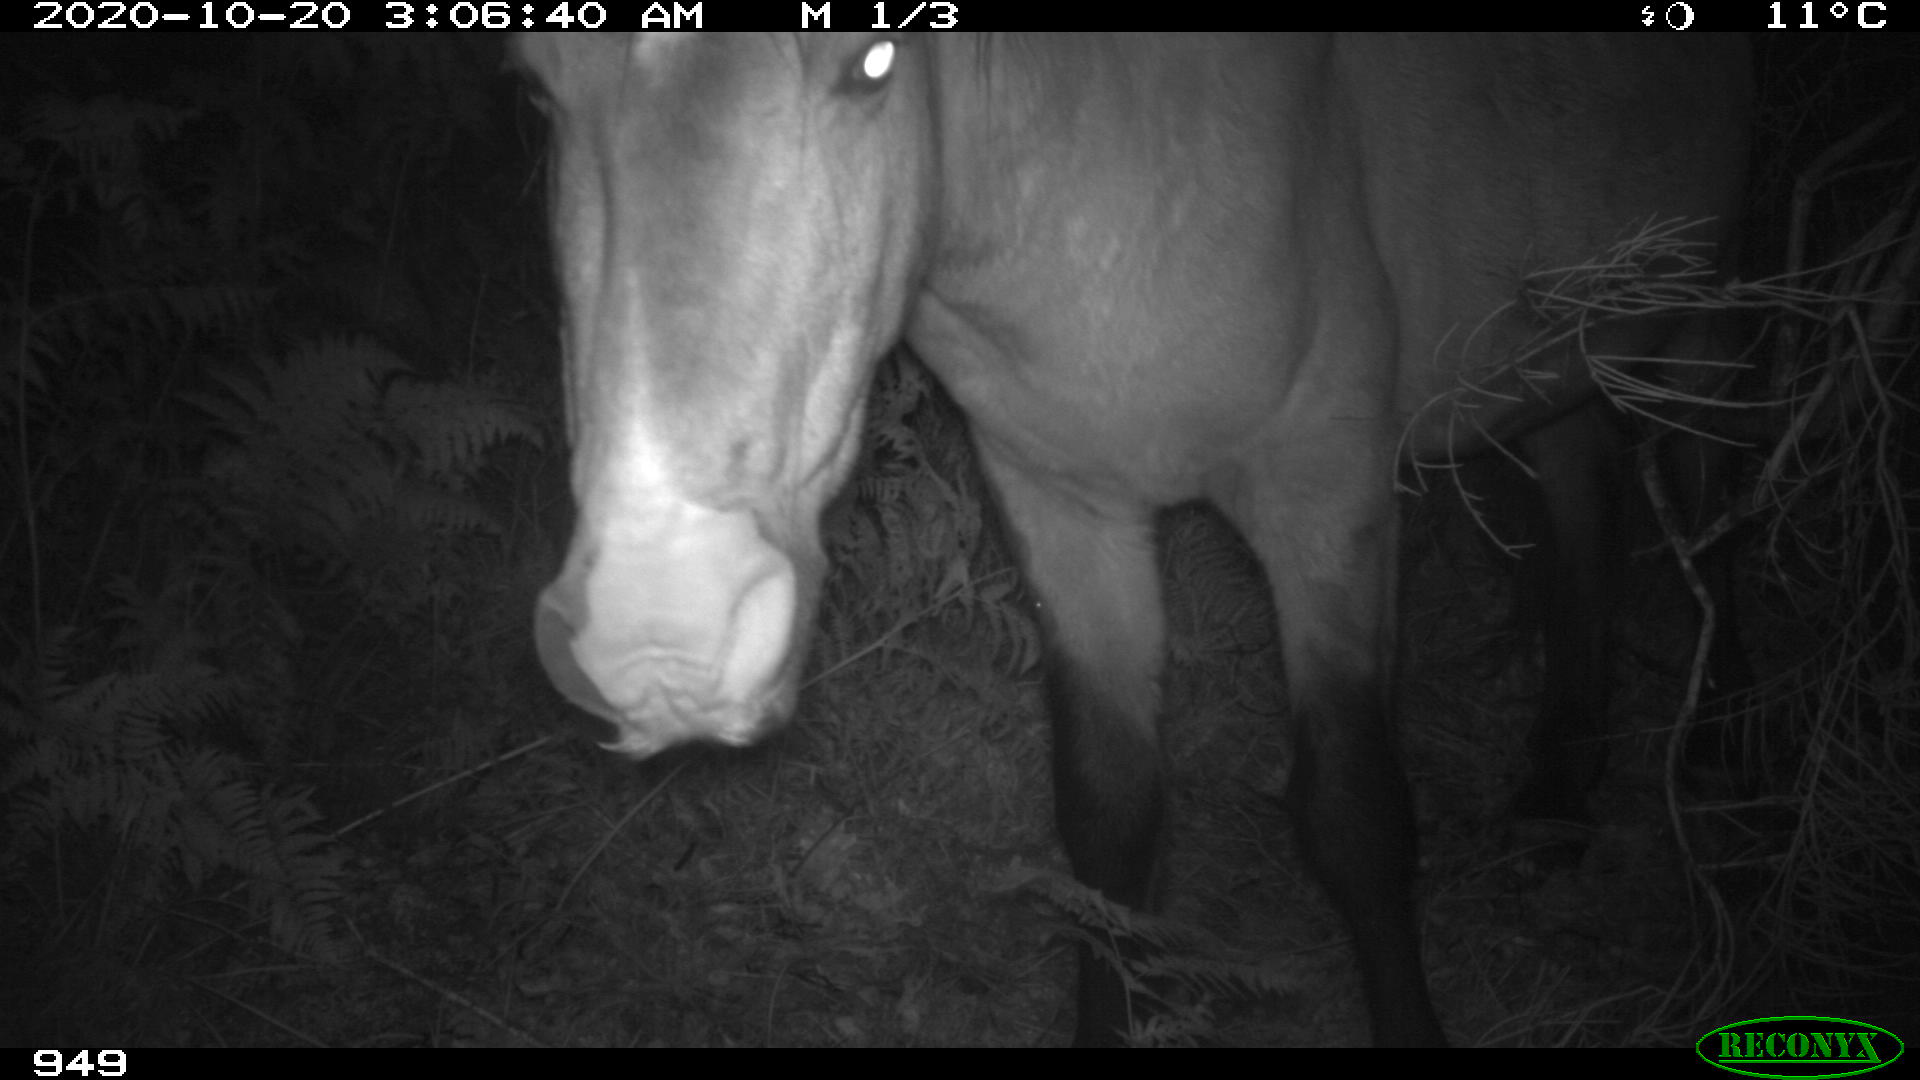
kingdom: Animalia
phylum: Chordata
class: Mammalia
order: Perissodactyla
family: Equidae
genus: Equus
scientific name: Equus caballus
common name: Horse
